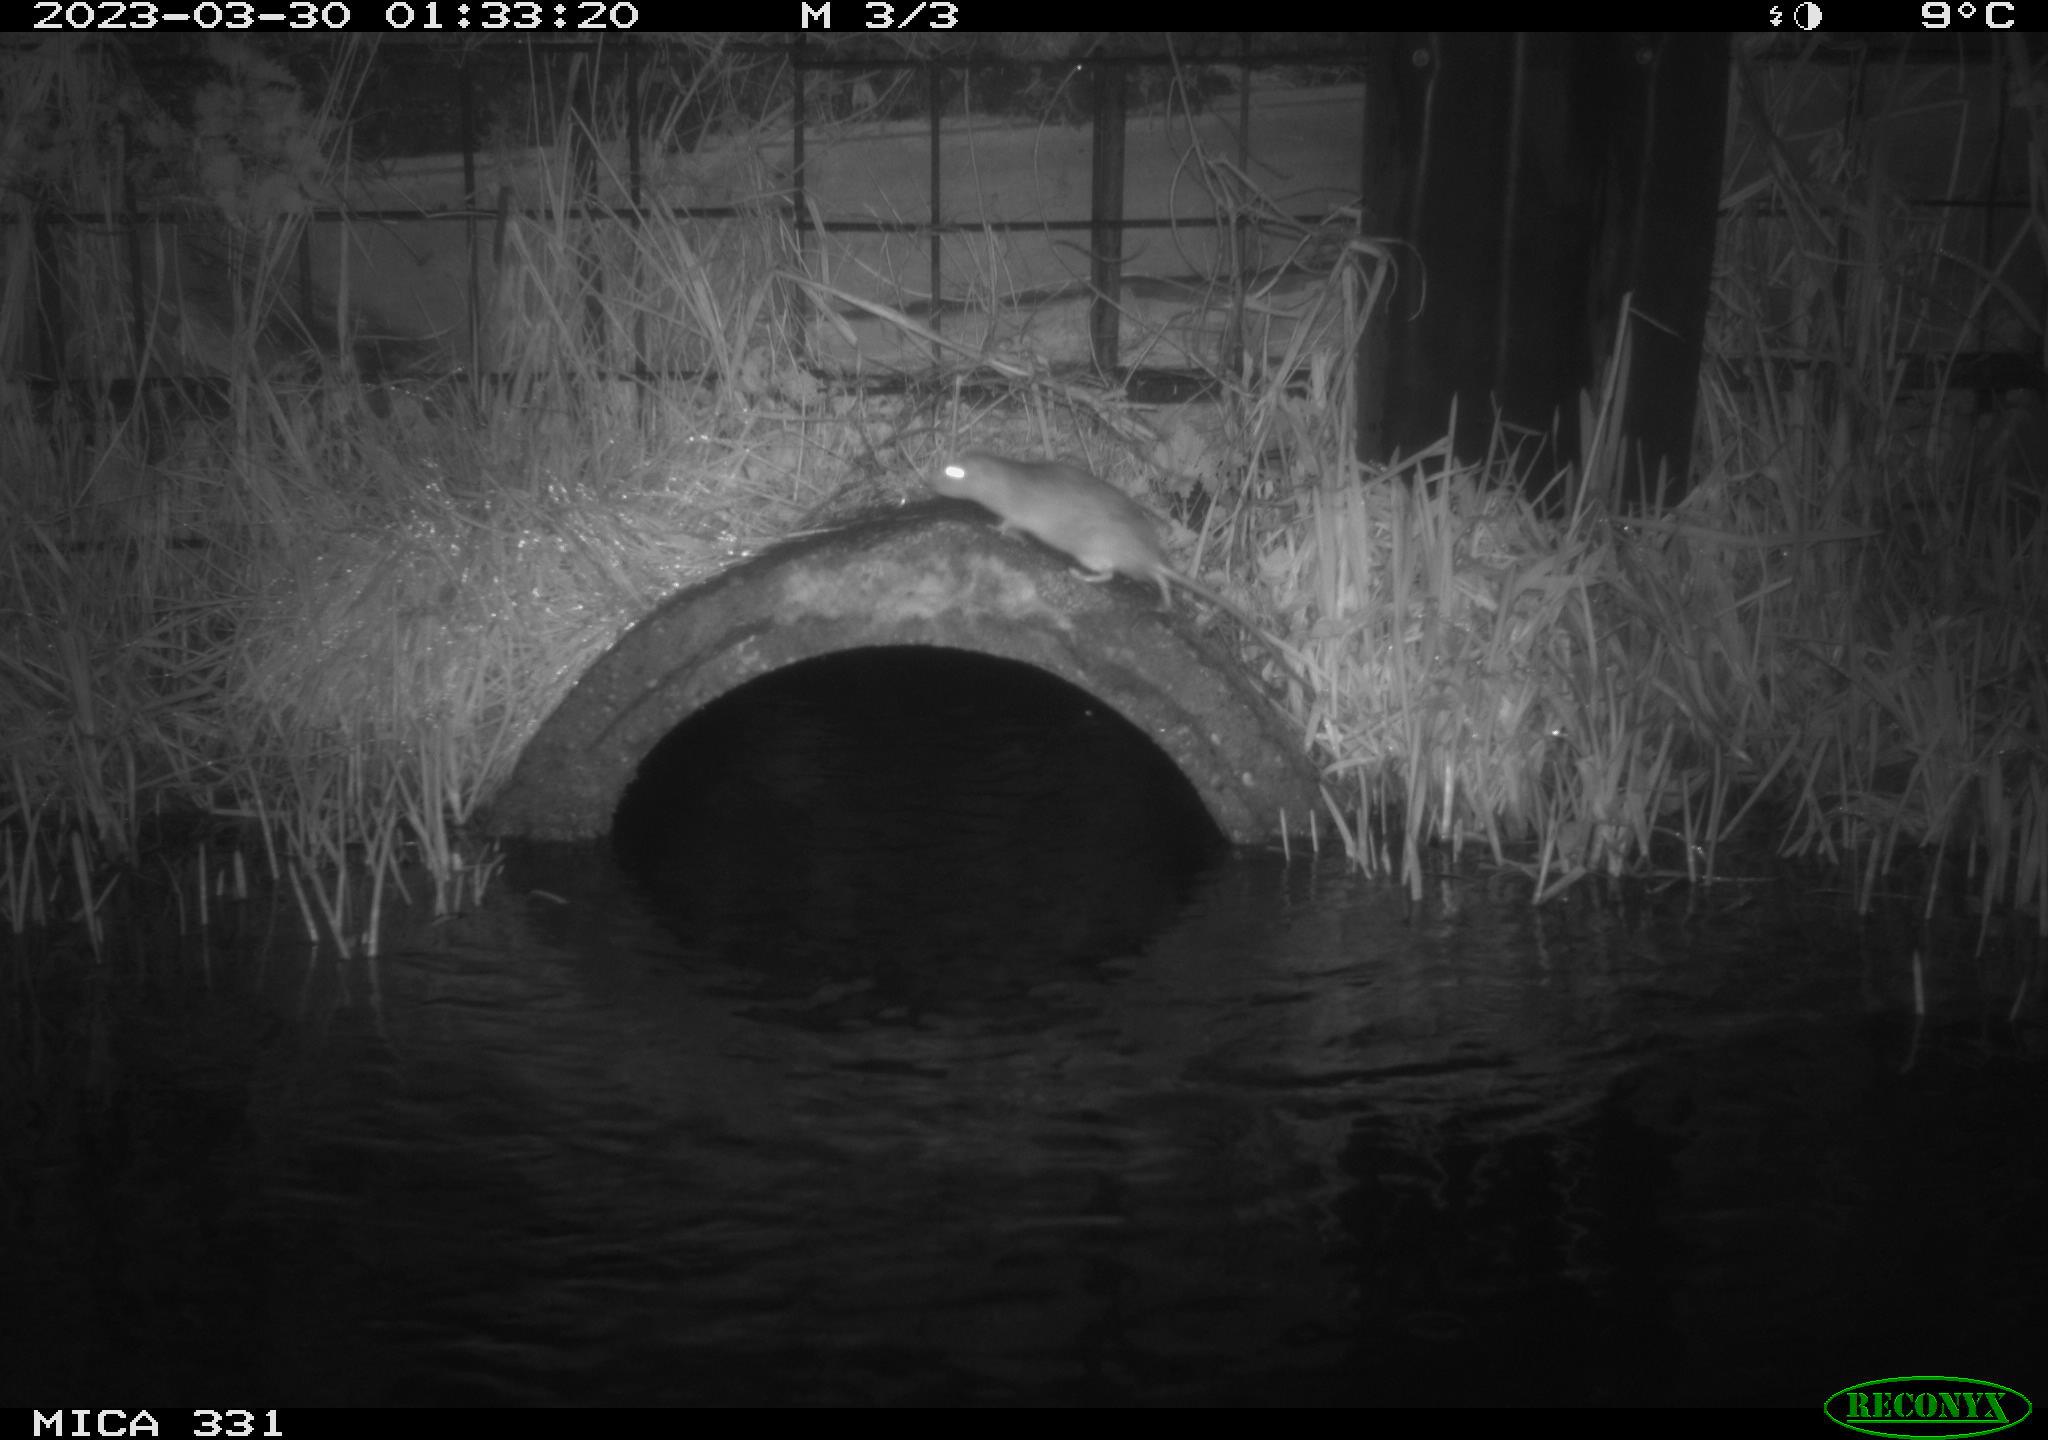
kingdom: Animalia
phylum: Chordata
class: Mammalia
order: Rodentia
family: Muridae
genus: Rattus
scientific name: Rattus norvegicus
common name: Brown rat
